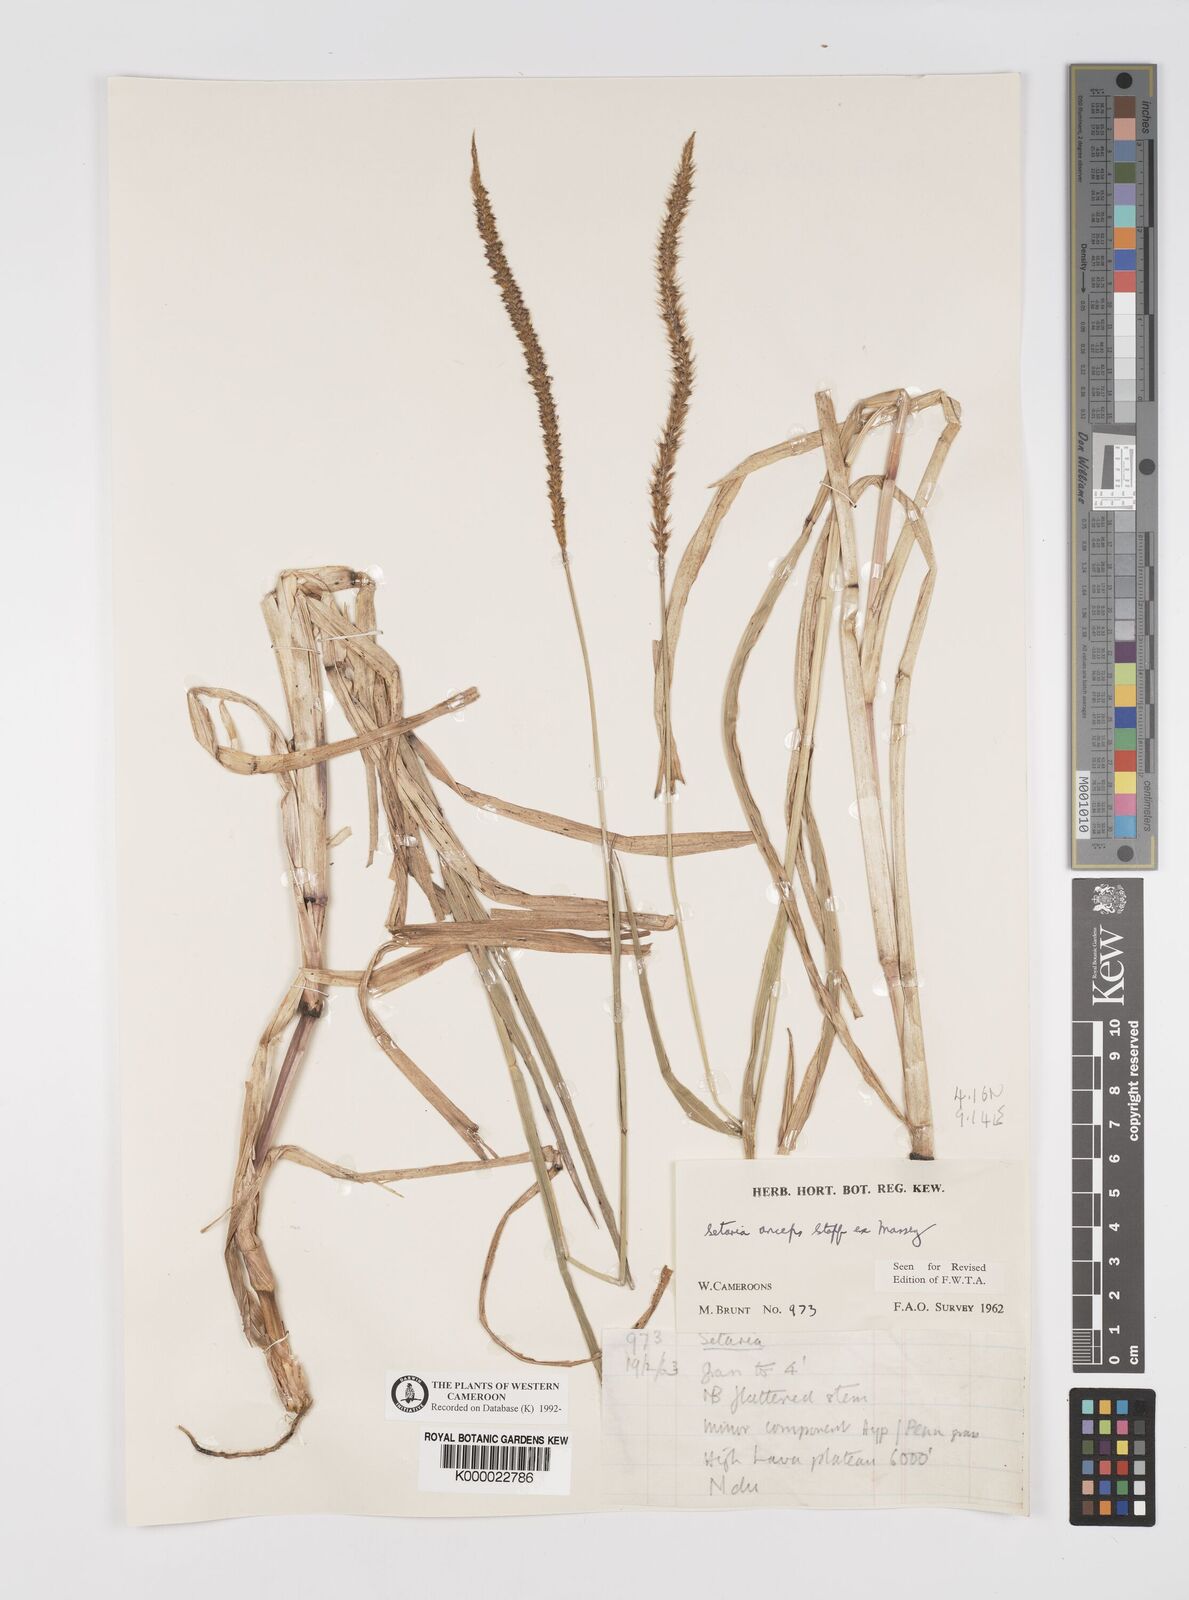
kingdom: Plantae
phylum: Tracheophyta
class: Liliopsida
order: Poales
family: Poaceae
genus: Setaria
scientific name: Setaria sphacelata
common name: African bristlegrass
